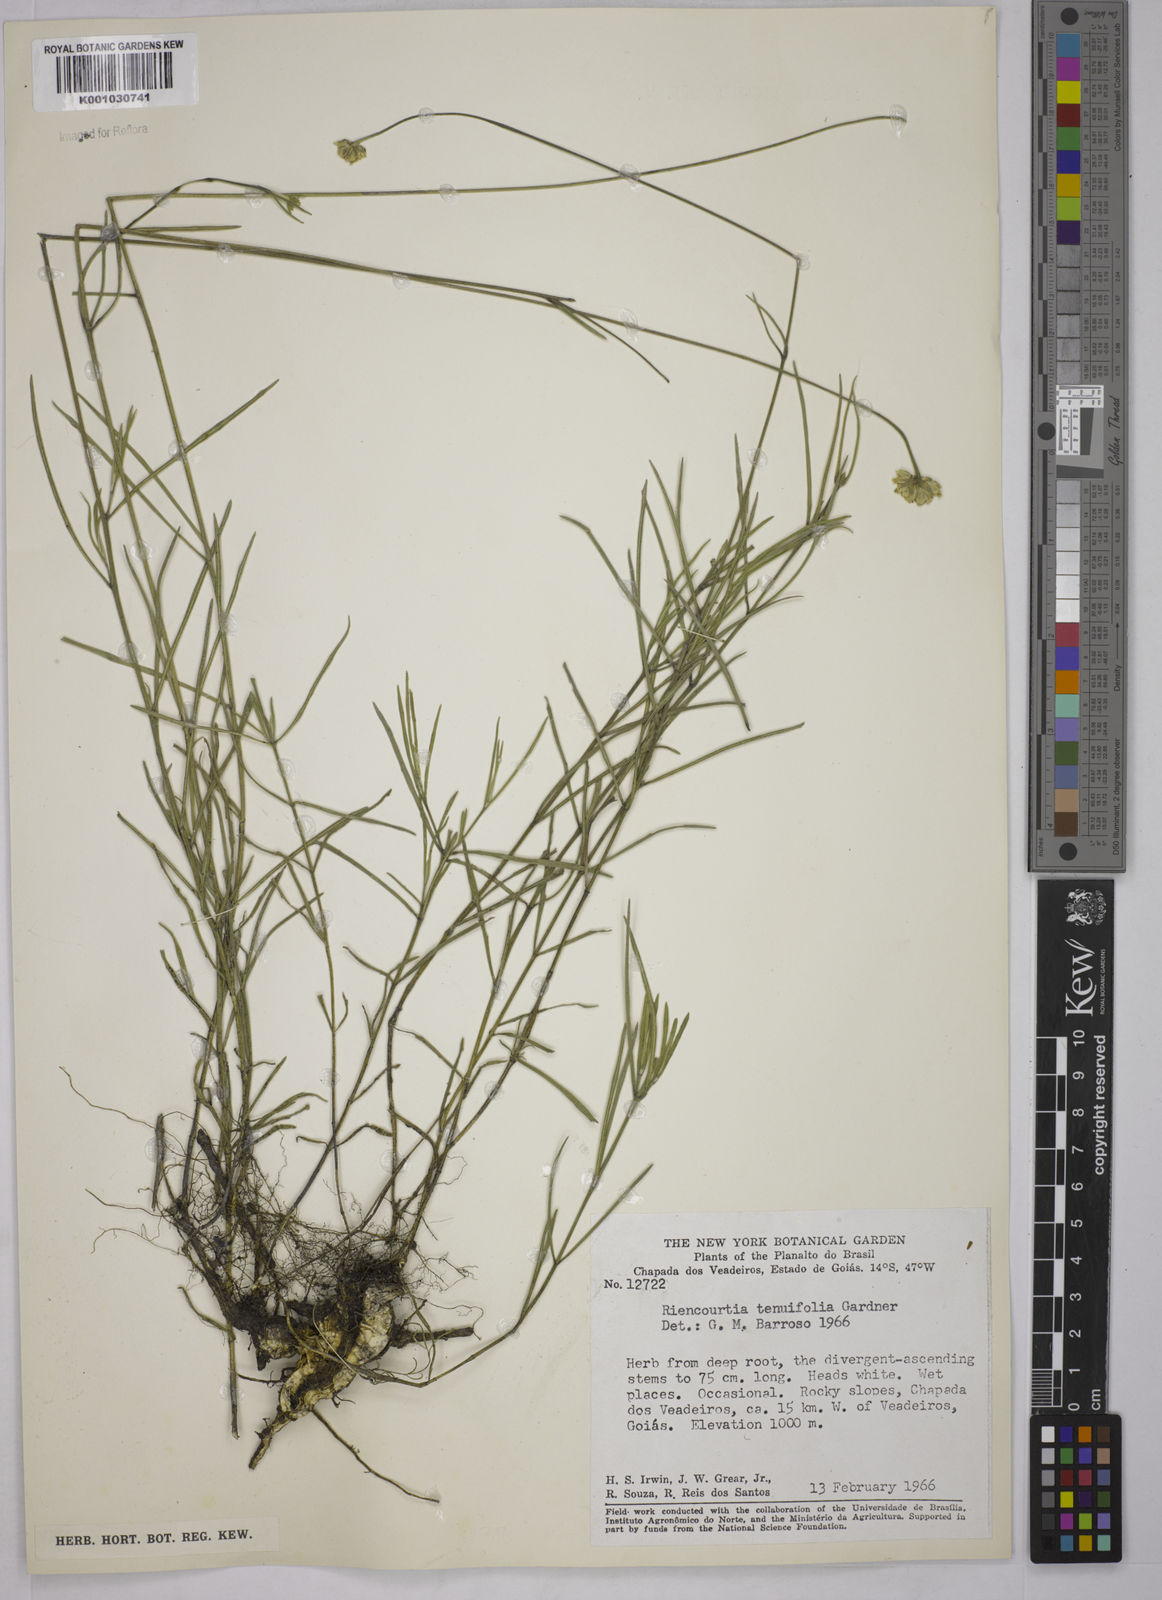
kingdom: Plantae
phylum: Tracheophyta
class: Magnoliopsida
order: Asterales
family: Asteraceae
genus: Riencourtia
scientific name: Riencourtia tenuifolia
